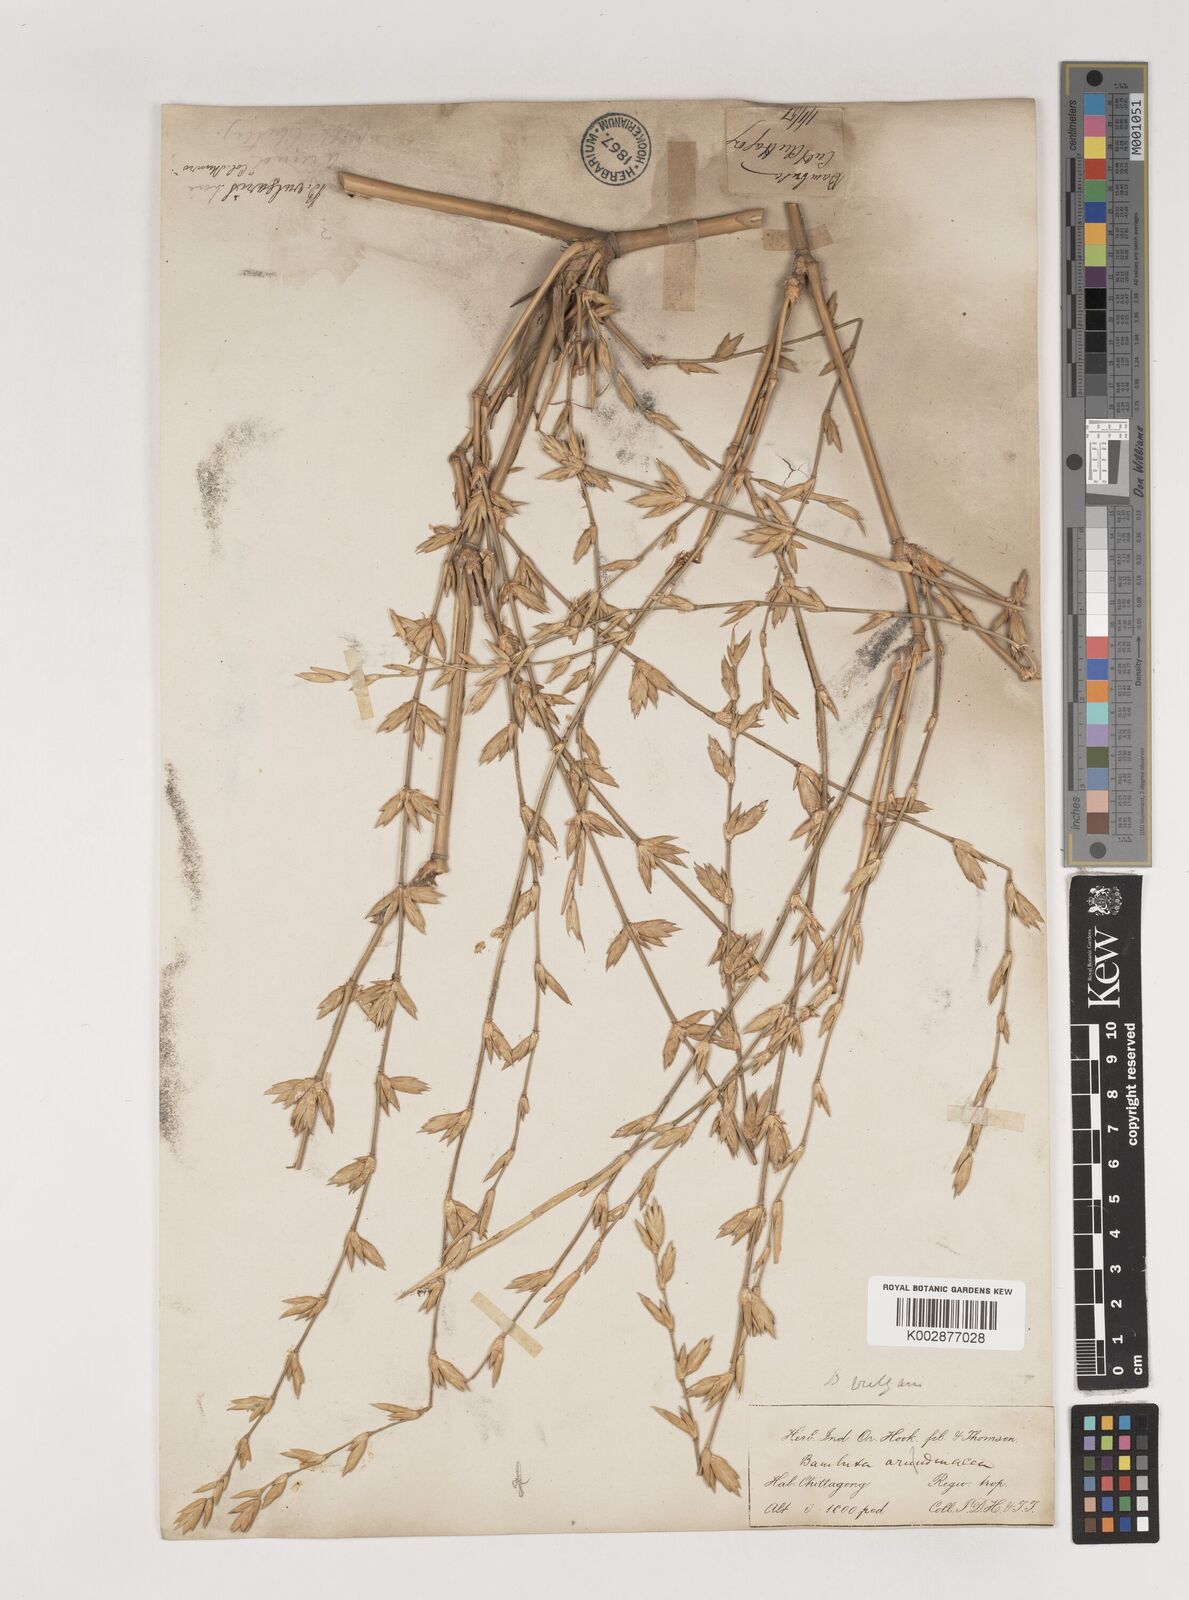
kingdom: Plantae
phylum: Tracheophyta
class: Liliopsida
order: Poales
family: Poaceae
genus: Bambusa
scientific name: Bambusa vulgaris
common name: Common bamboo
